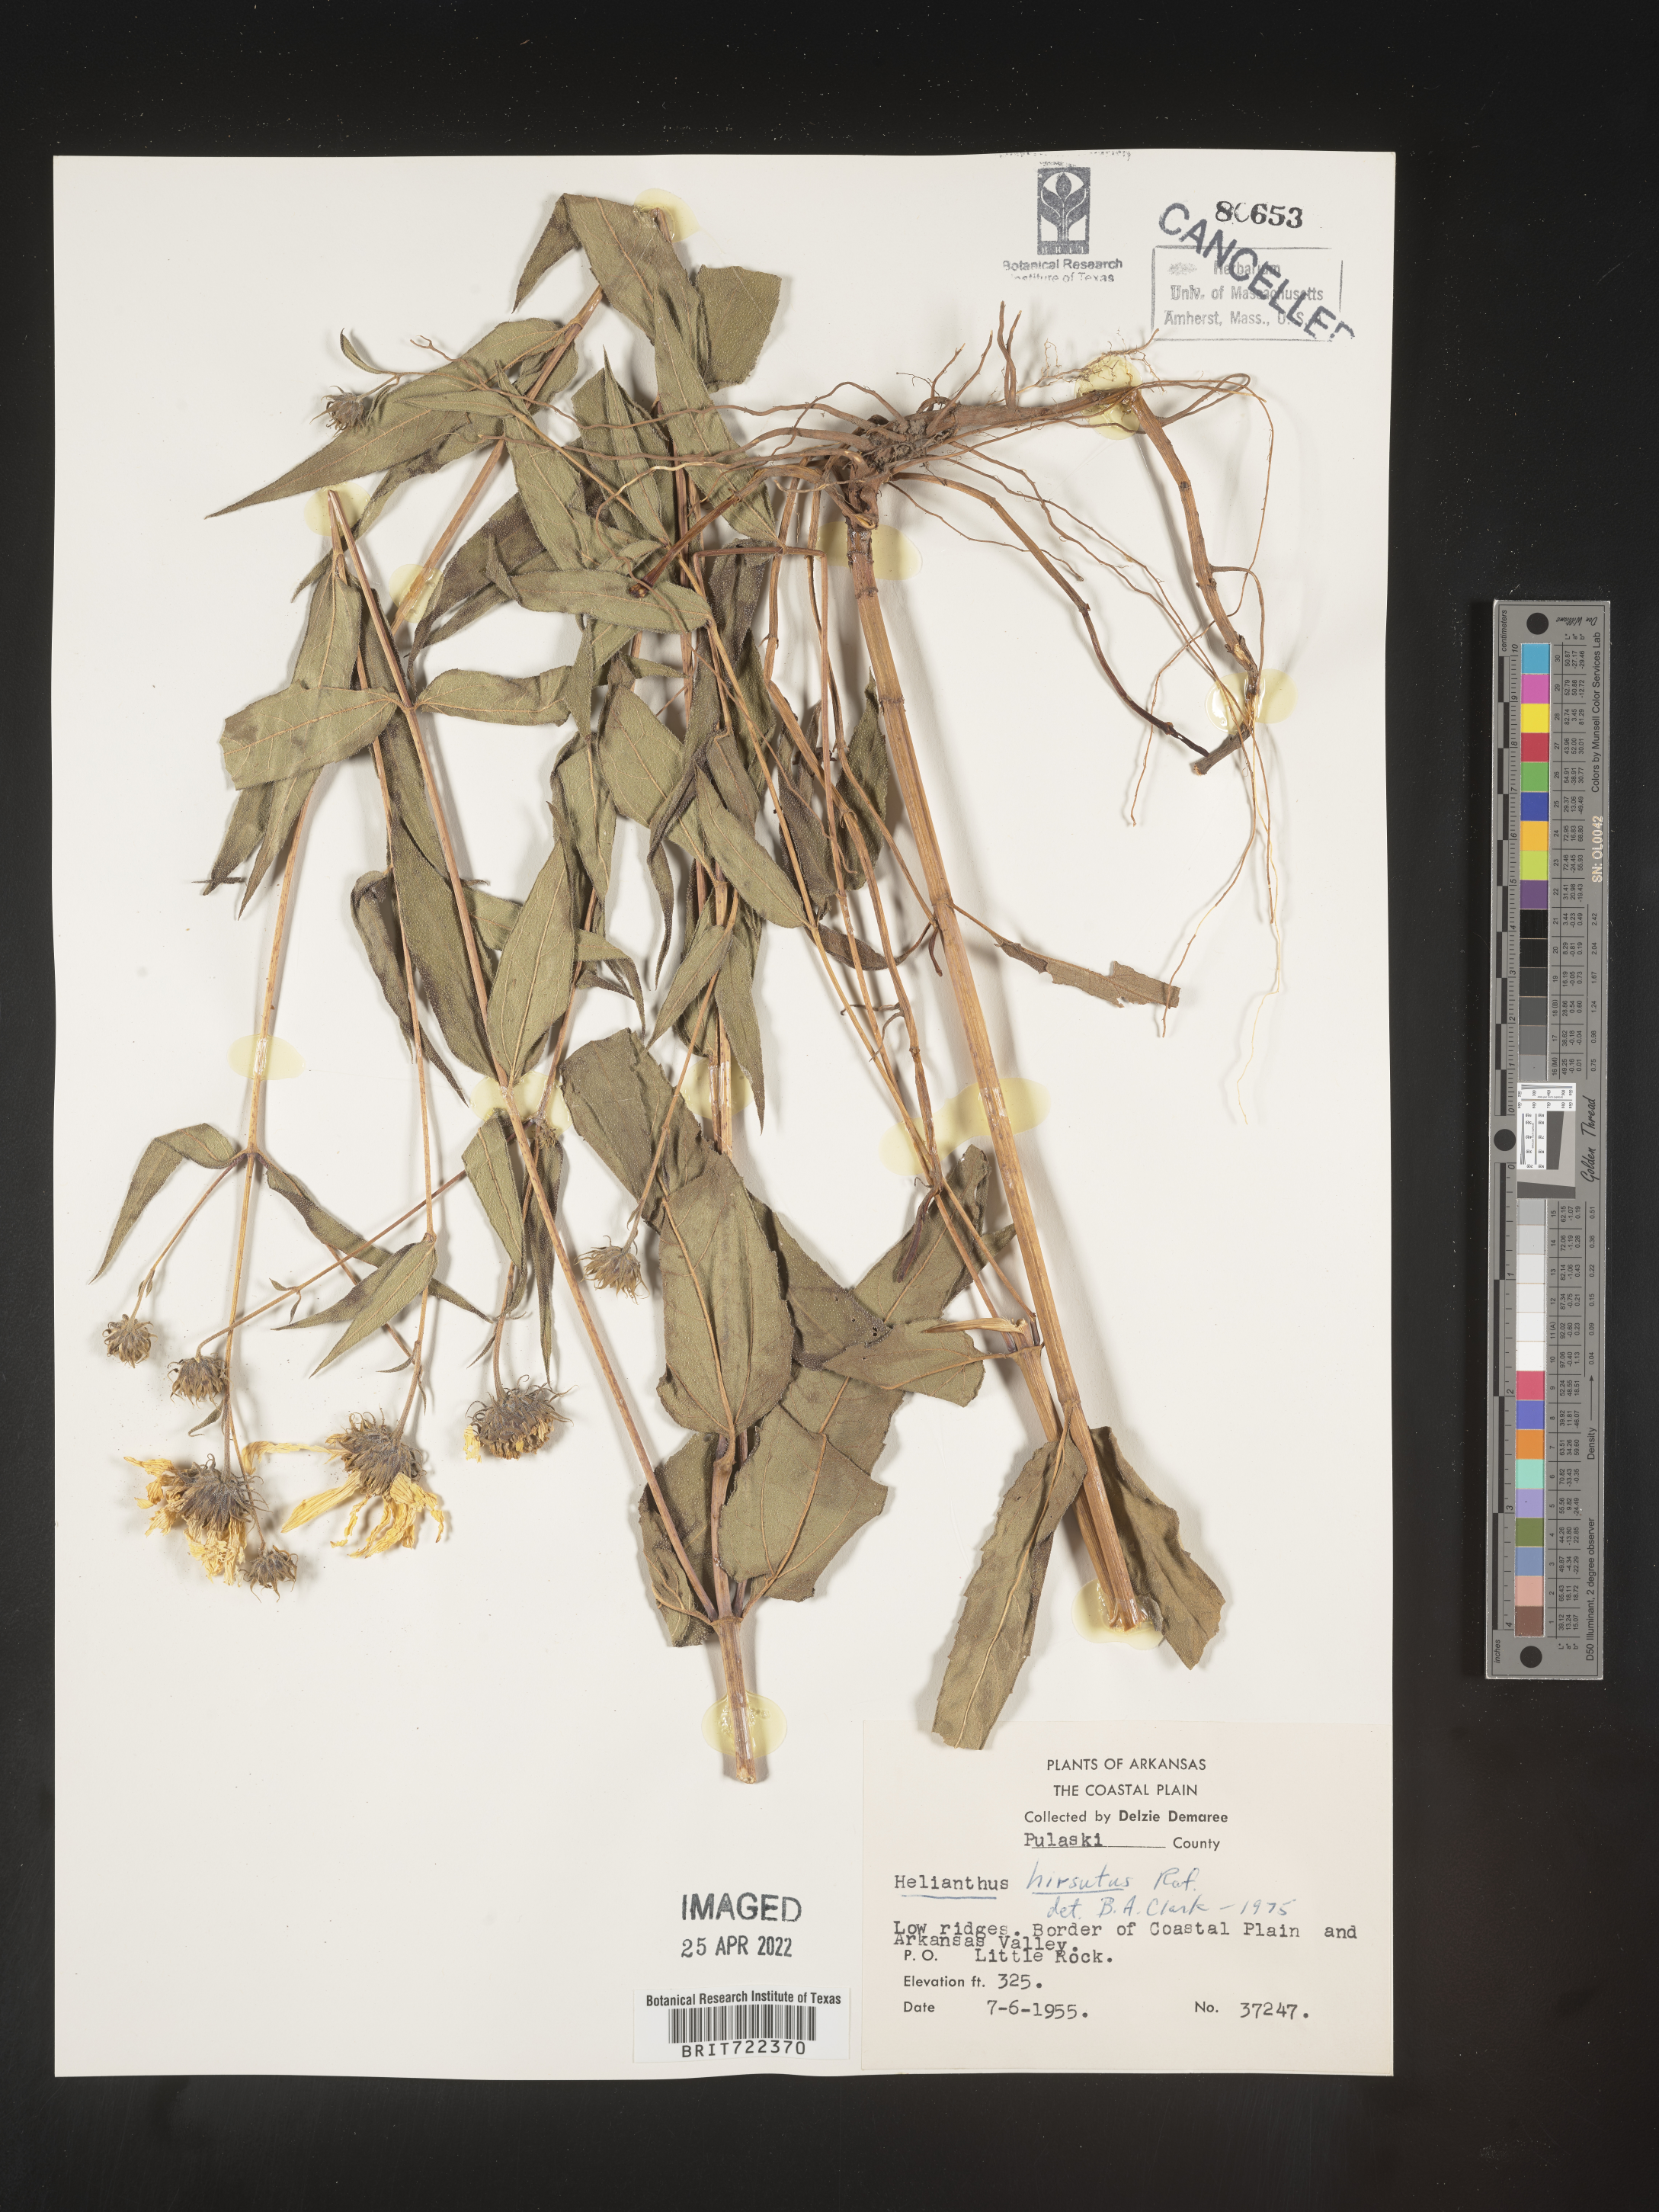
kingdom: Plantae
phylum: Tracheophyta
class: Magnoliopsida
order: Asterales
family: Asteraceae
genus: Helianthus
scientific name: Helianthus hirsutus
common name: Hairy sunflower
